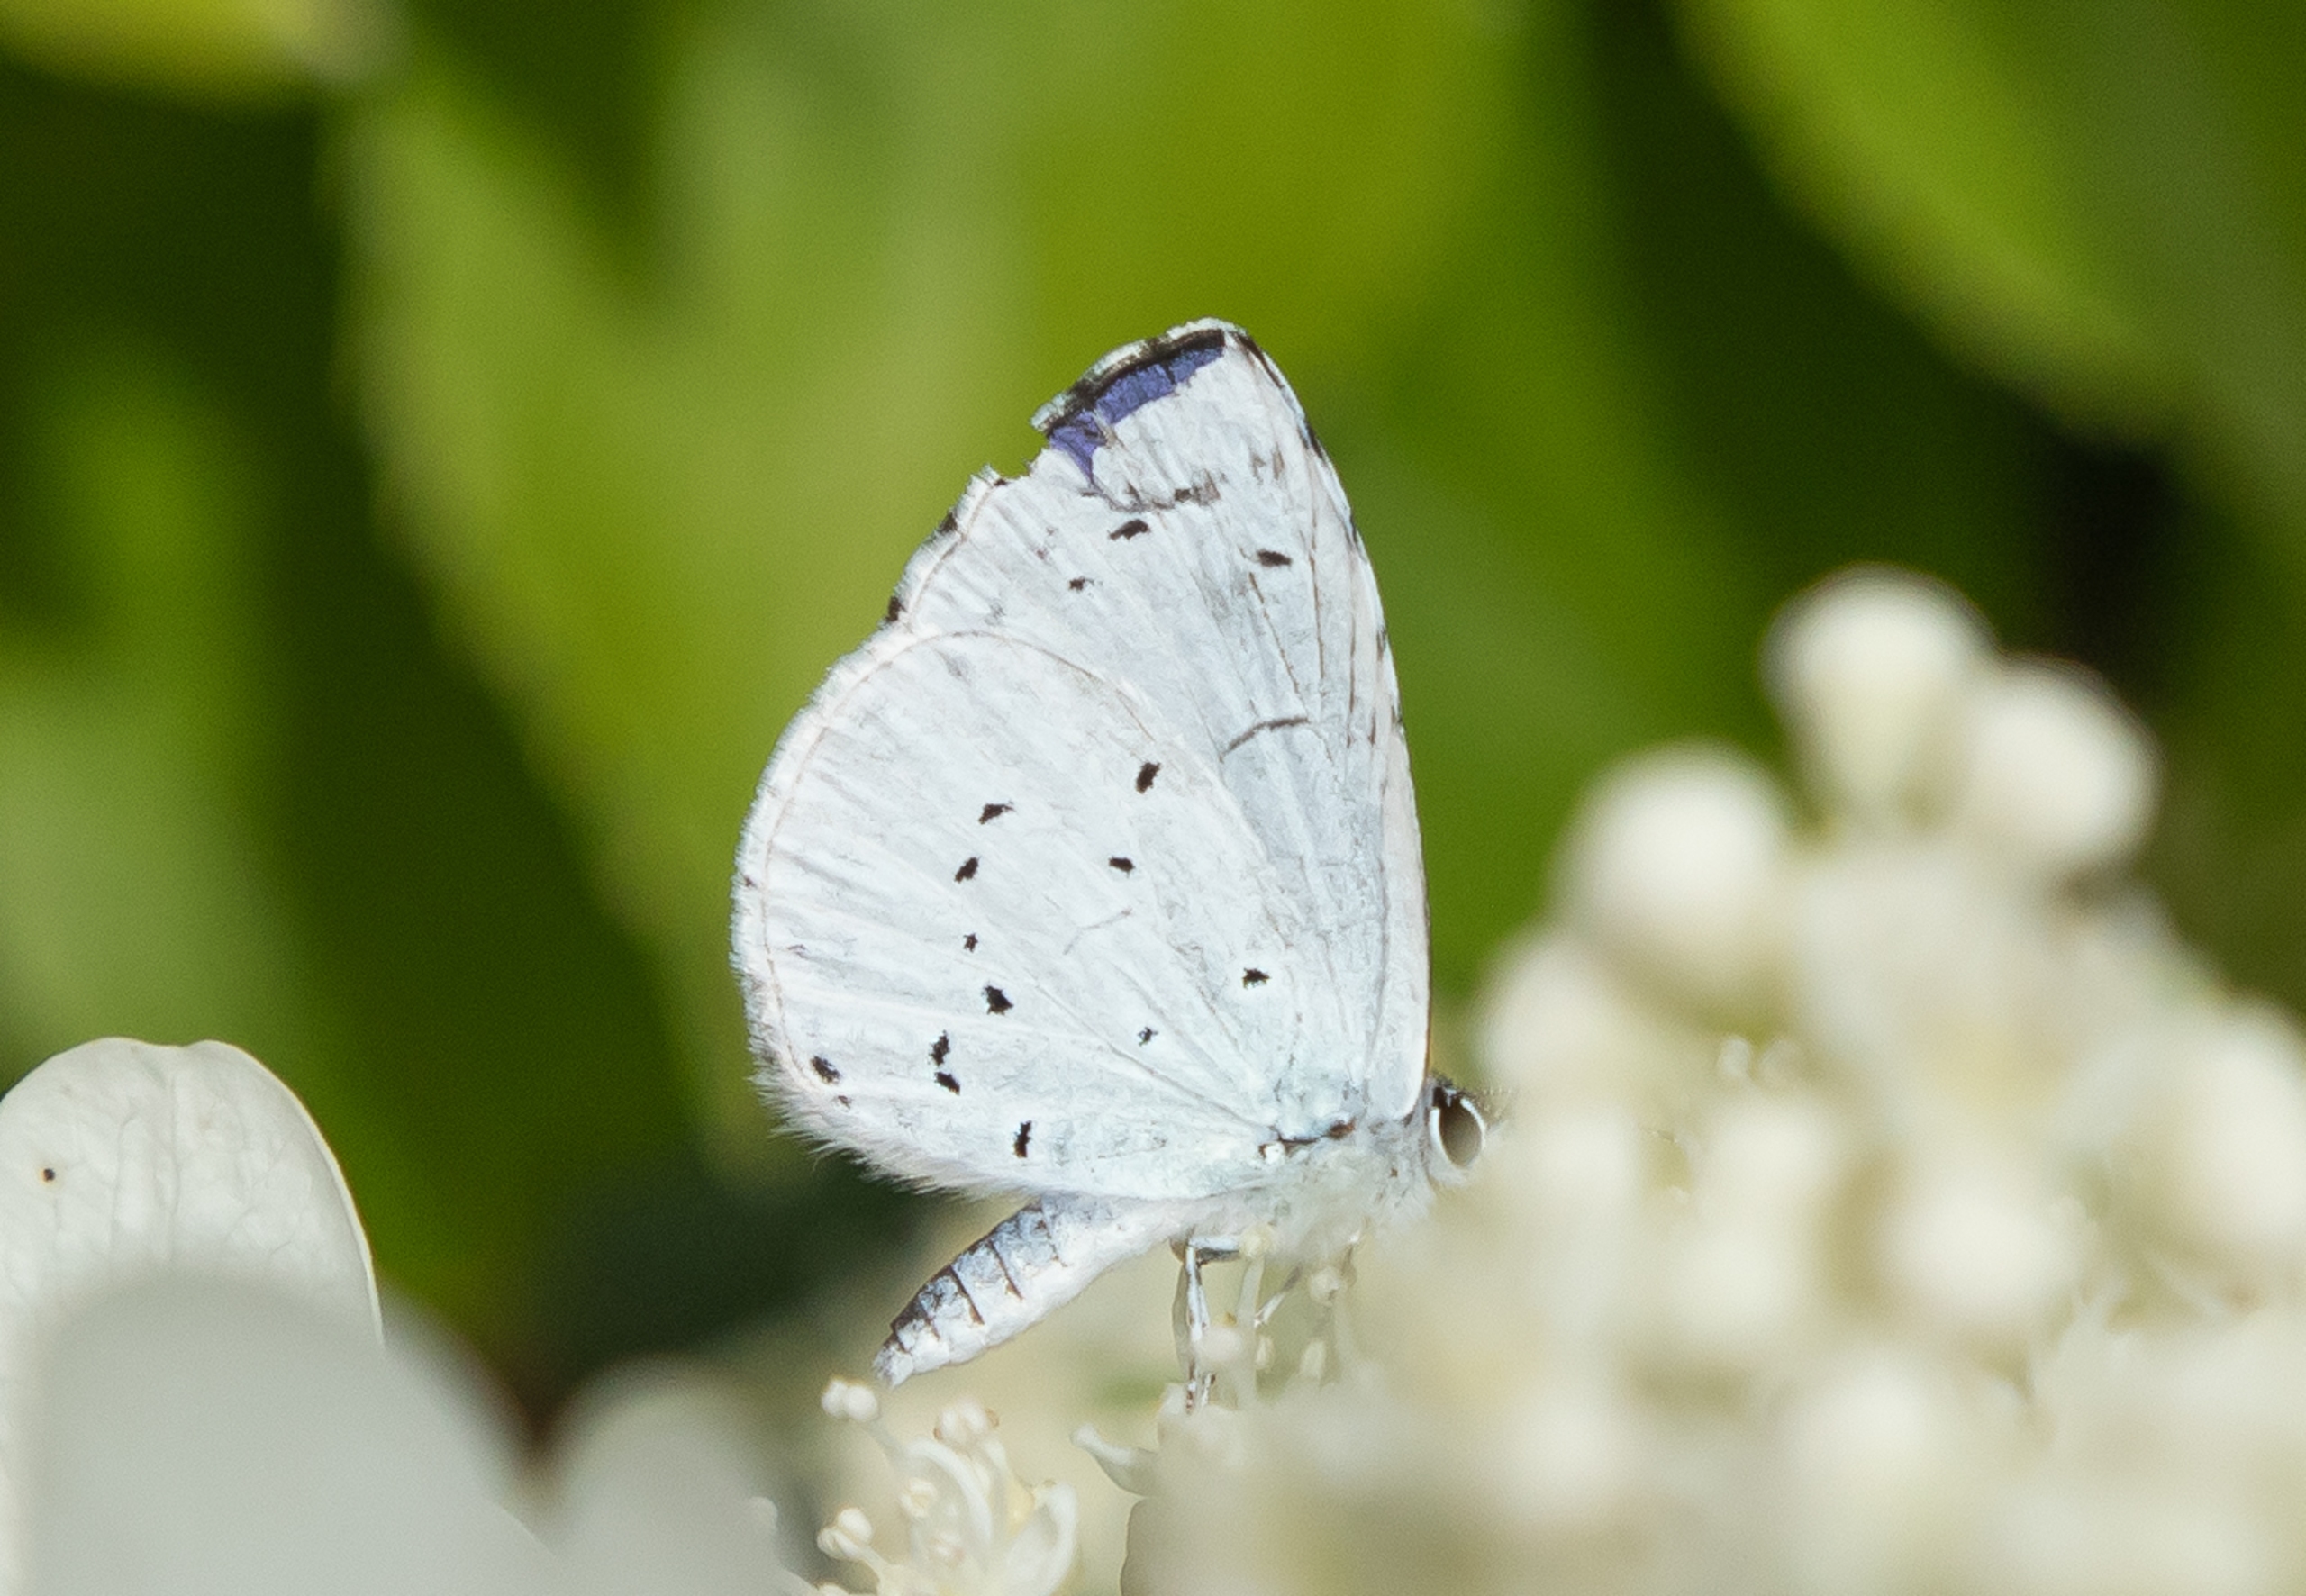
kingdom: Animalia
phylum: Arthropoda
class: Insecta
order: Lepidoptera
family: Lycaenidae
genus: Celastrina
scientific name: Celastrina argiolus
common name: Skovblåfugl
